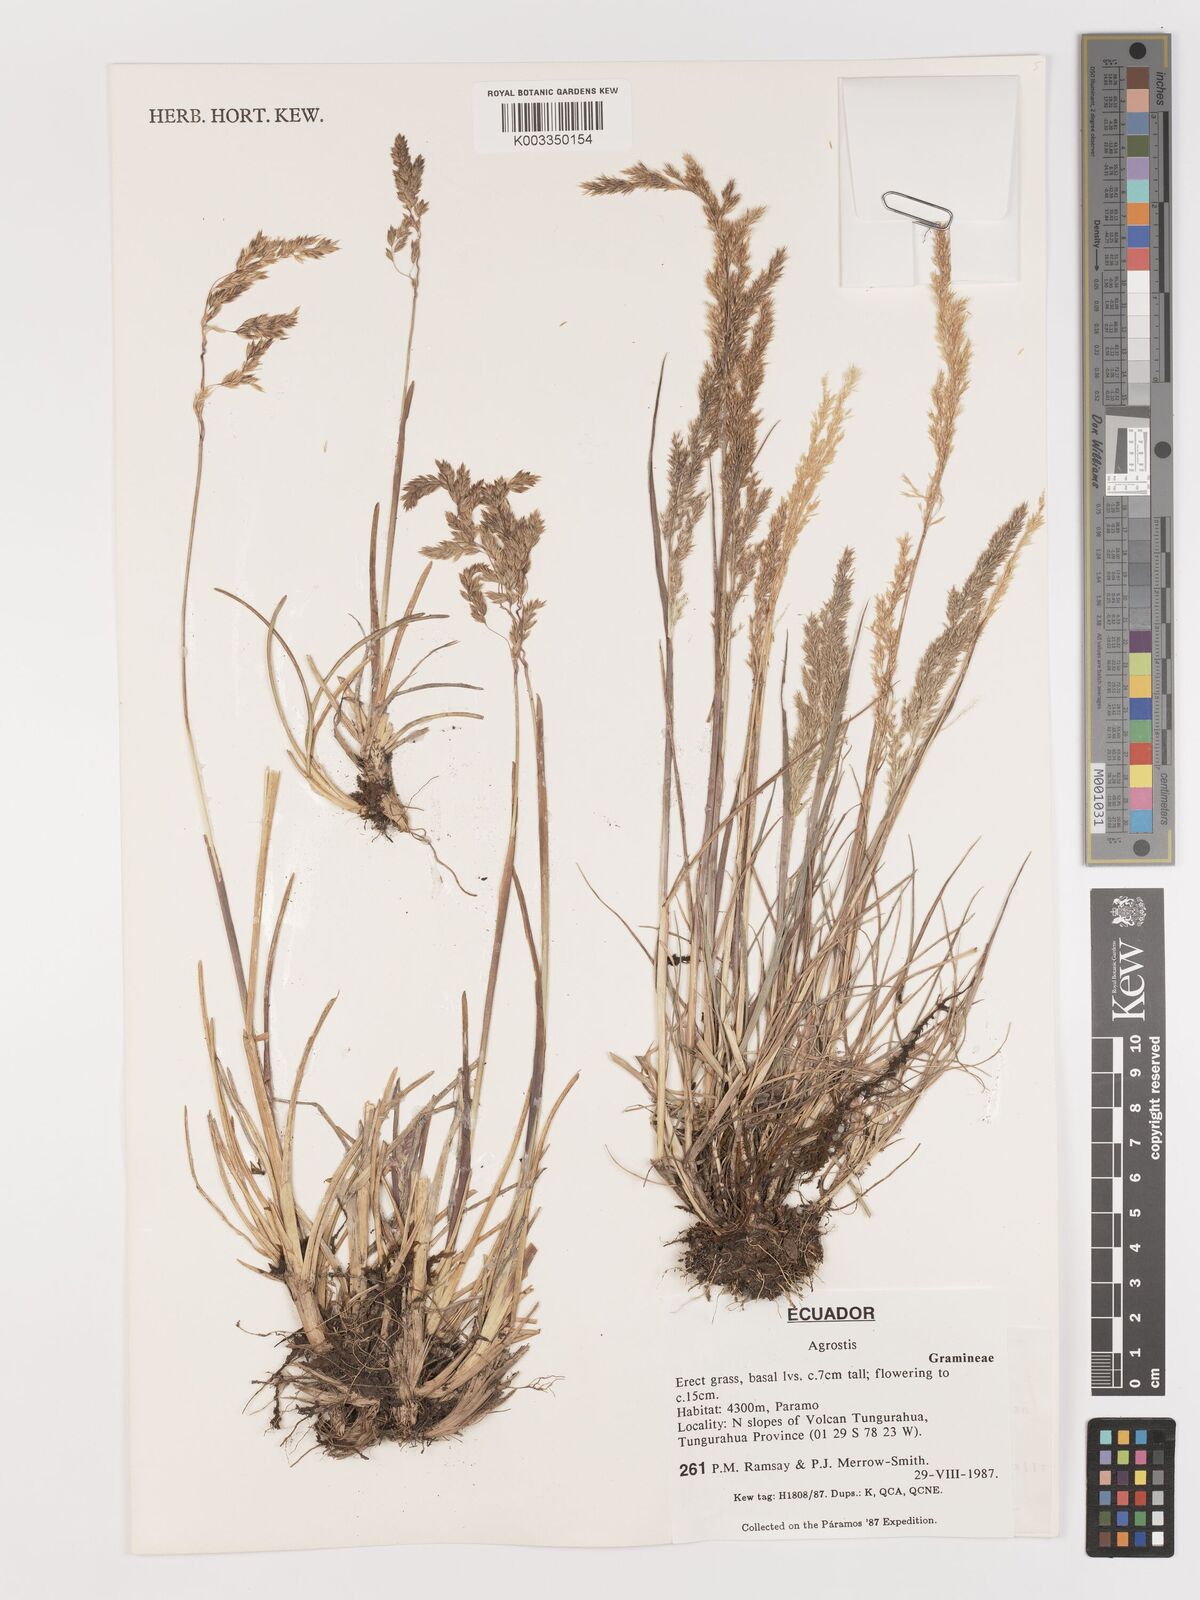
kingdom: Plantae
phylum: Tracheophyta
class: Liliopsida
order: Poales
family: Poaceae
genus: Agrostis
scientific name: Agrostis
